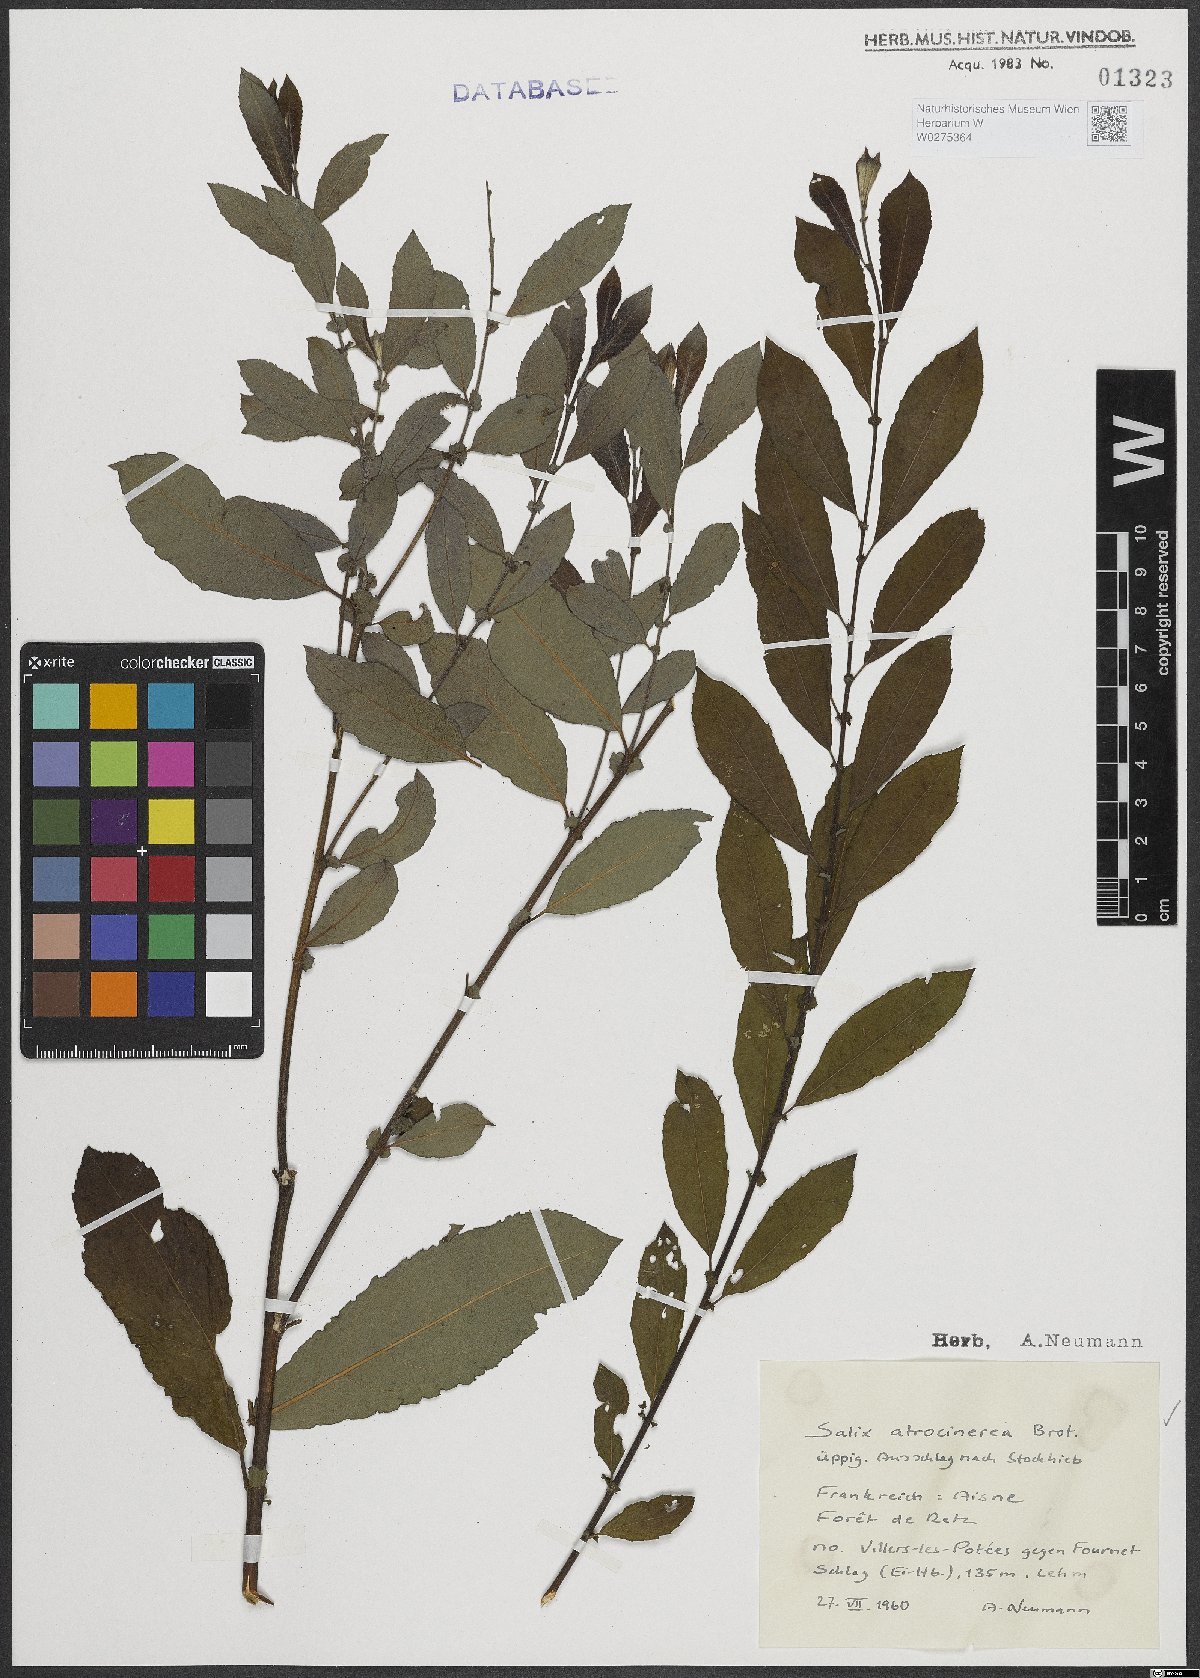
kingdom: Plantae
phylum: Tracheophyta
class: Magnoliopsida
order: Malpighiales
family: Salicaceae
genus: Salix
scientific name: Salix atrocinerea
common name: Rusty willow
